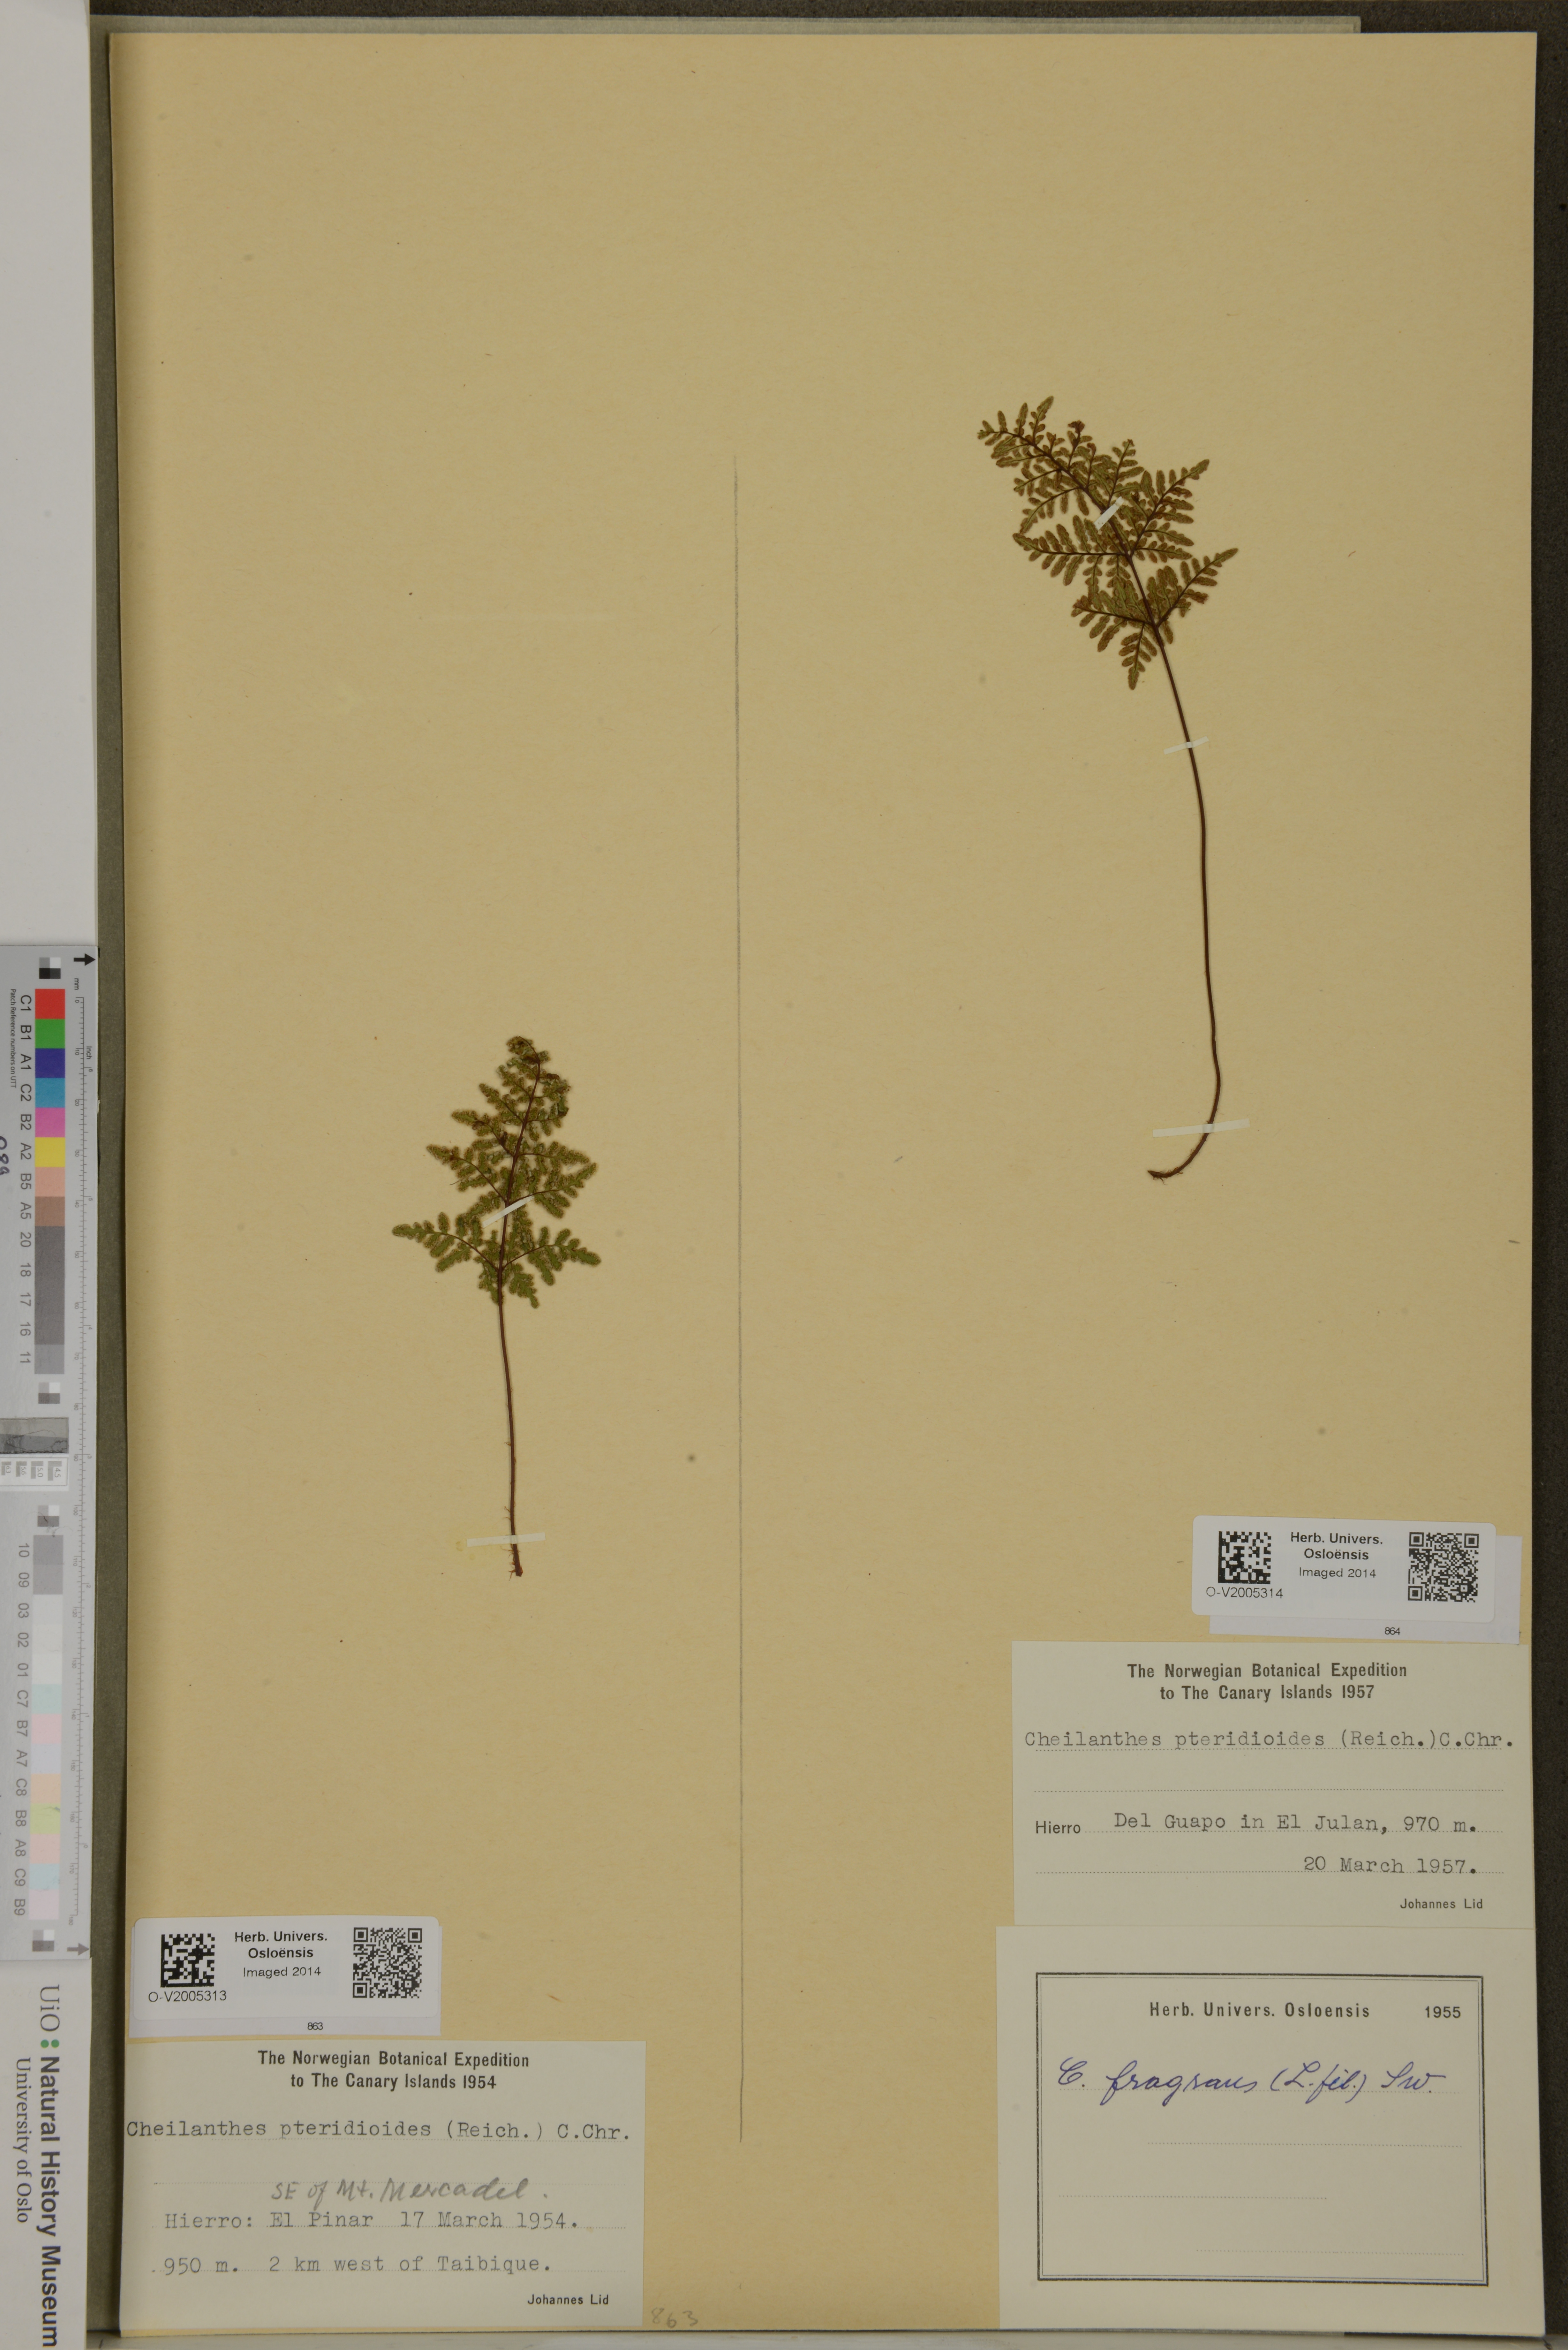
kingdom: Plantae
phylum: Tracheophyta
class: Polypodiopsida
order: Polypodiales
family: Pteridaceae
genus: Oeosporangium
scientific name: Oeosporangium pteridioides
